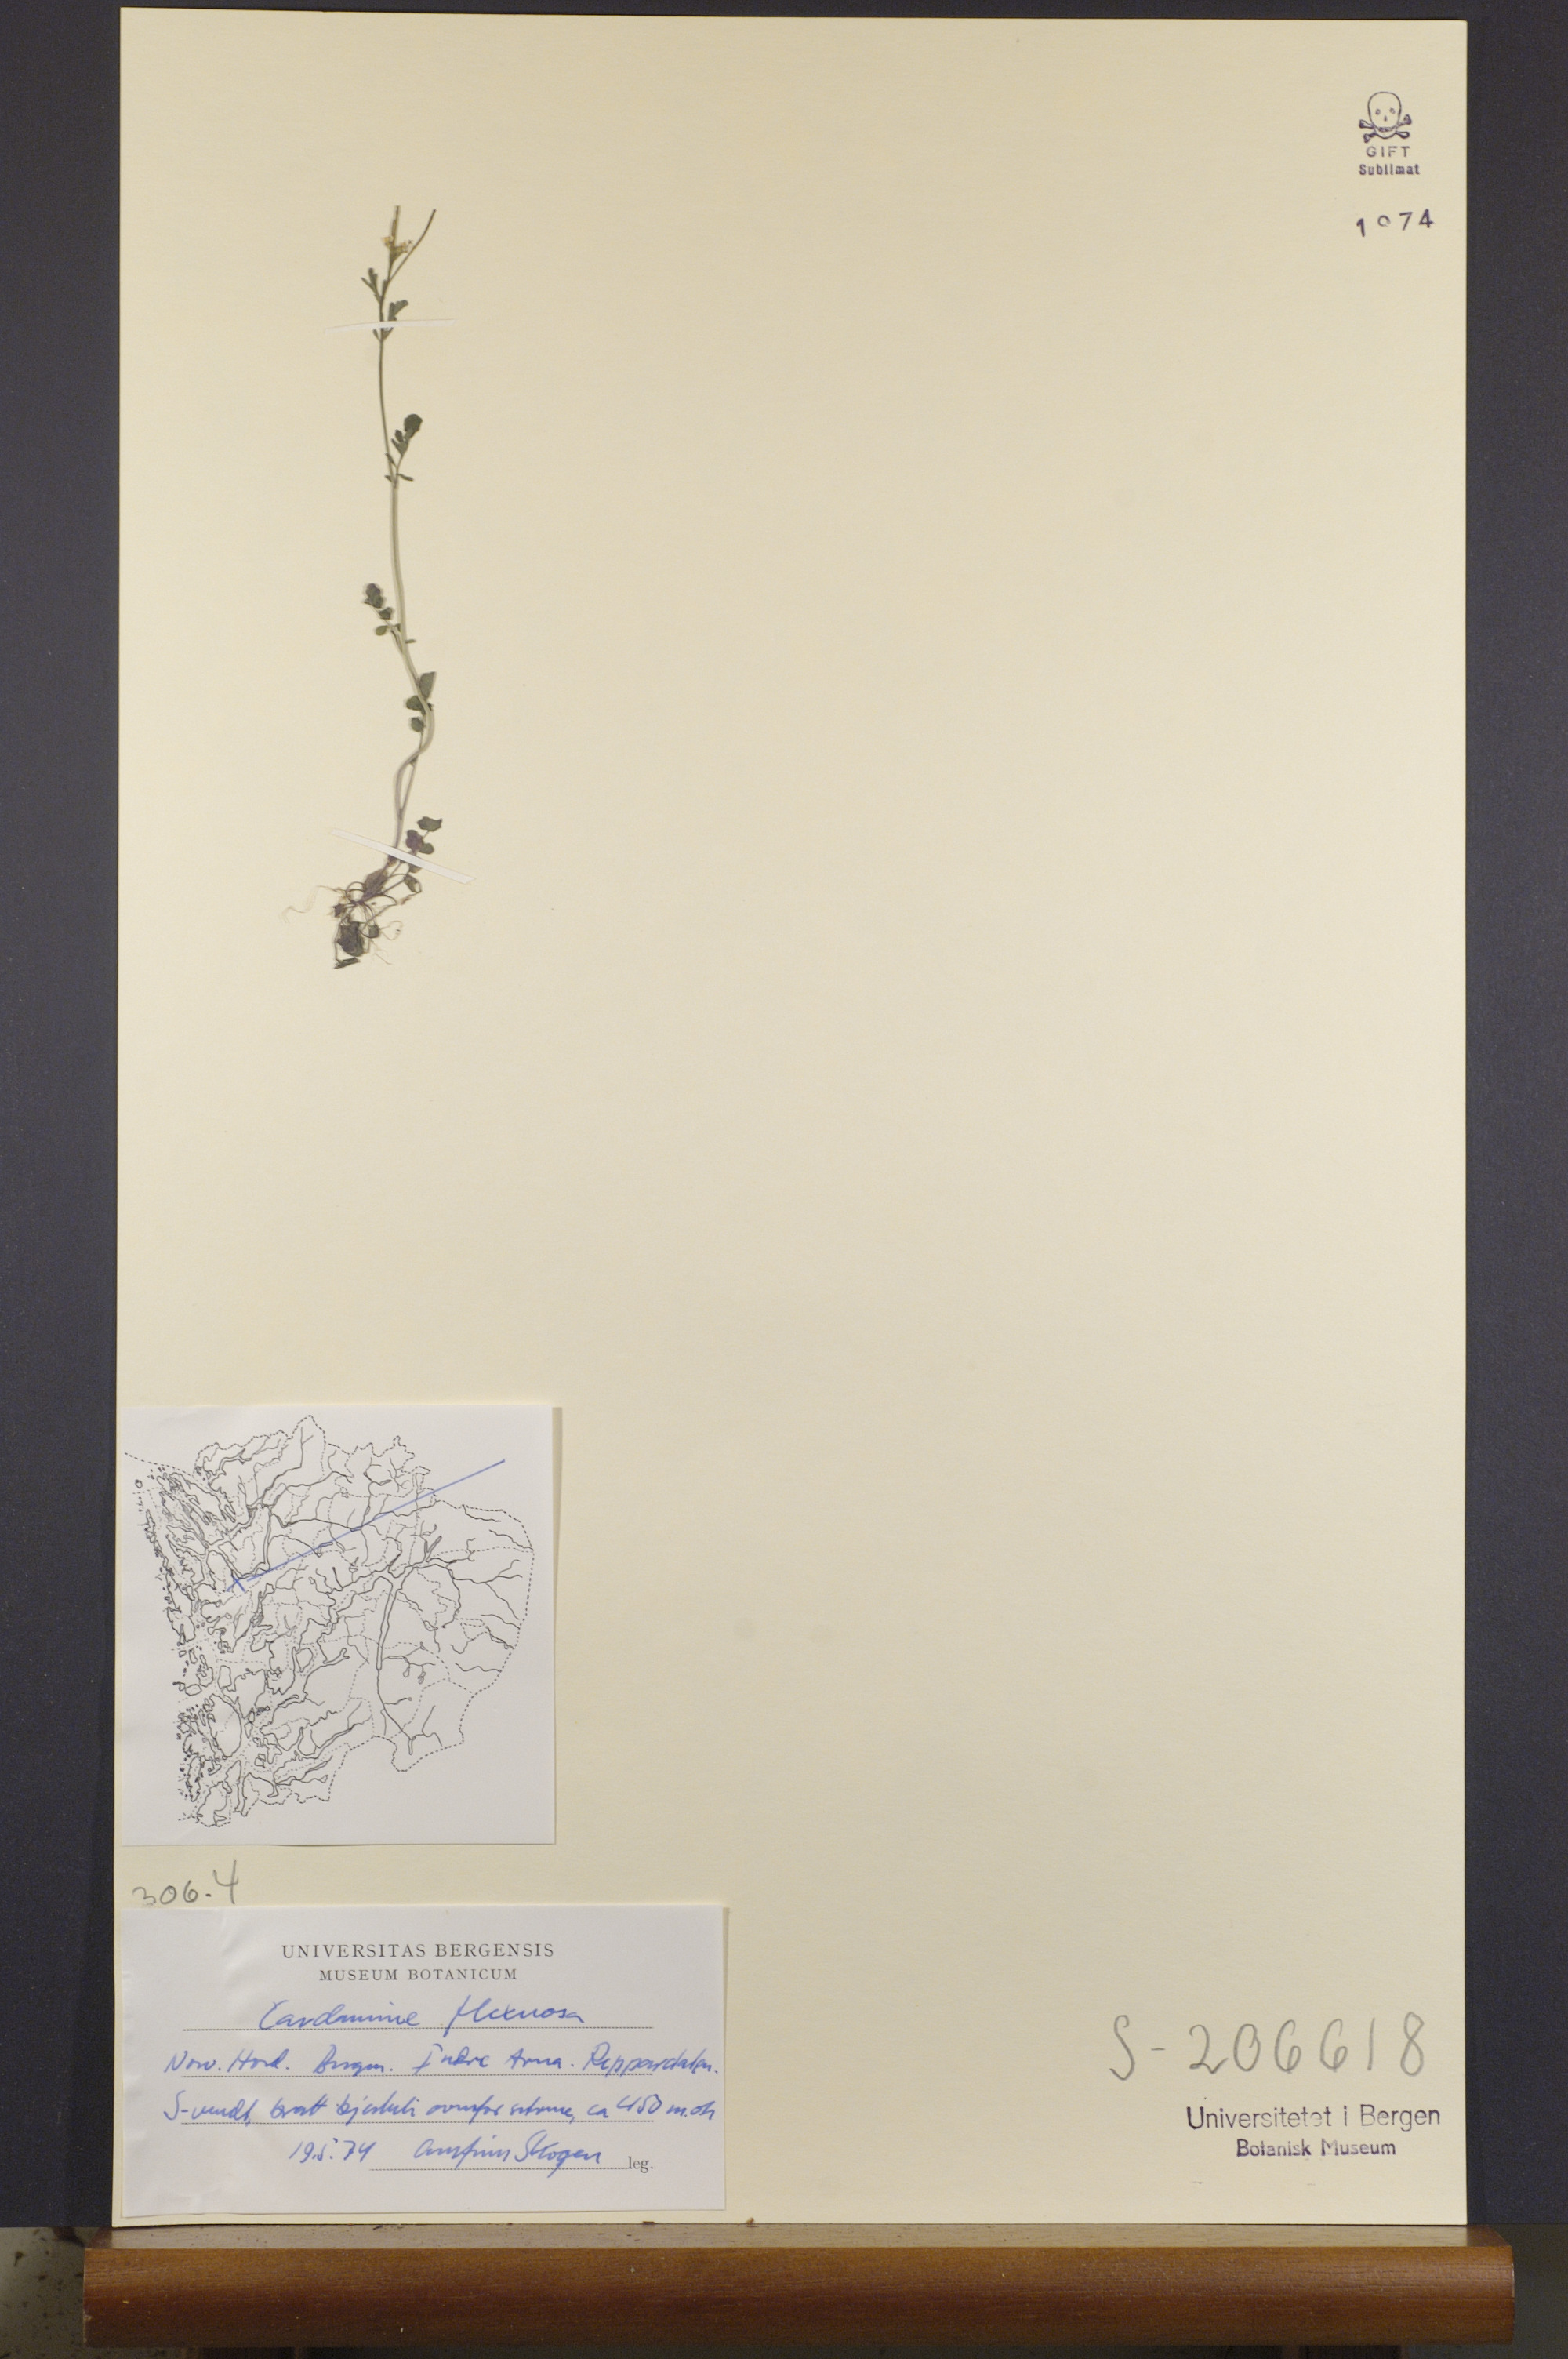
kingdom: Plantae
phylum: Tracheophyta
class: Magnoliopsida
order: Brassicales
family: Brassicaceae
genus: Cardamine
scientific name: Cardamine flexuosa
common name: Woodland bittercress
